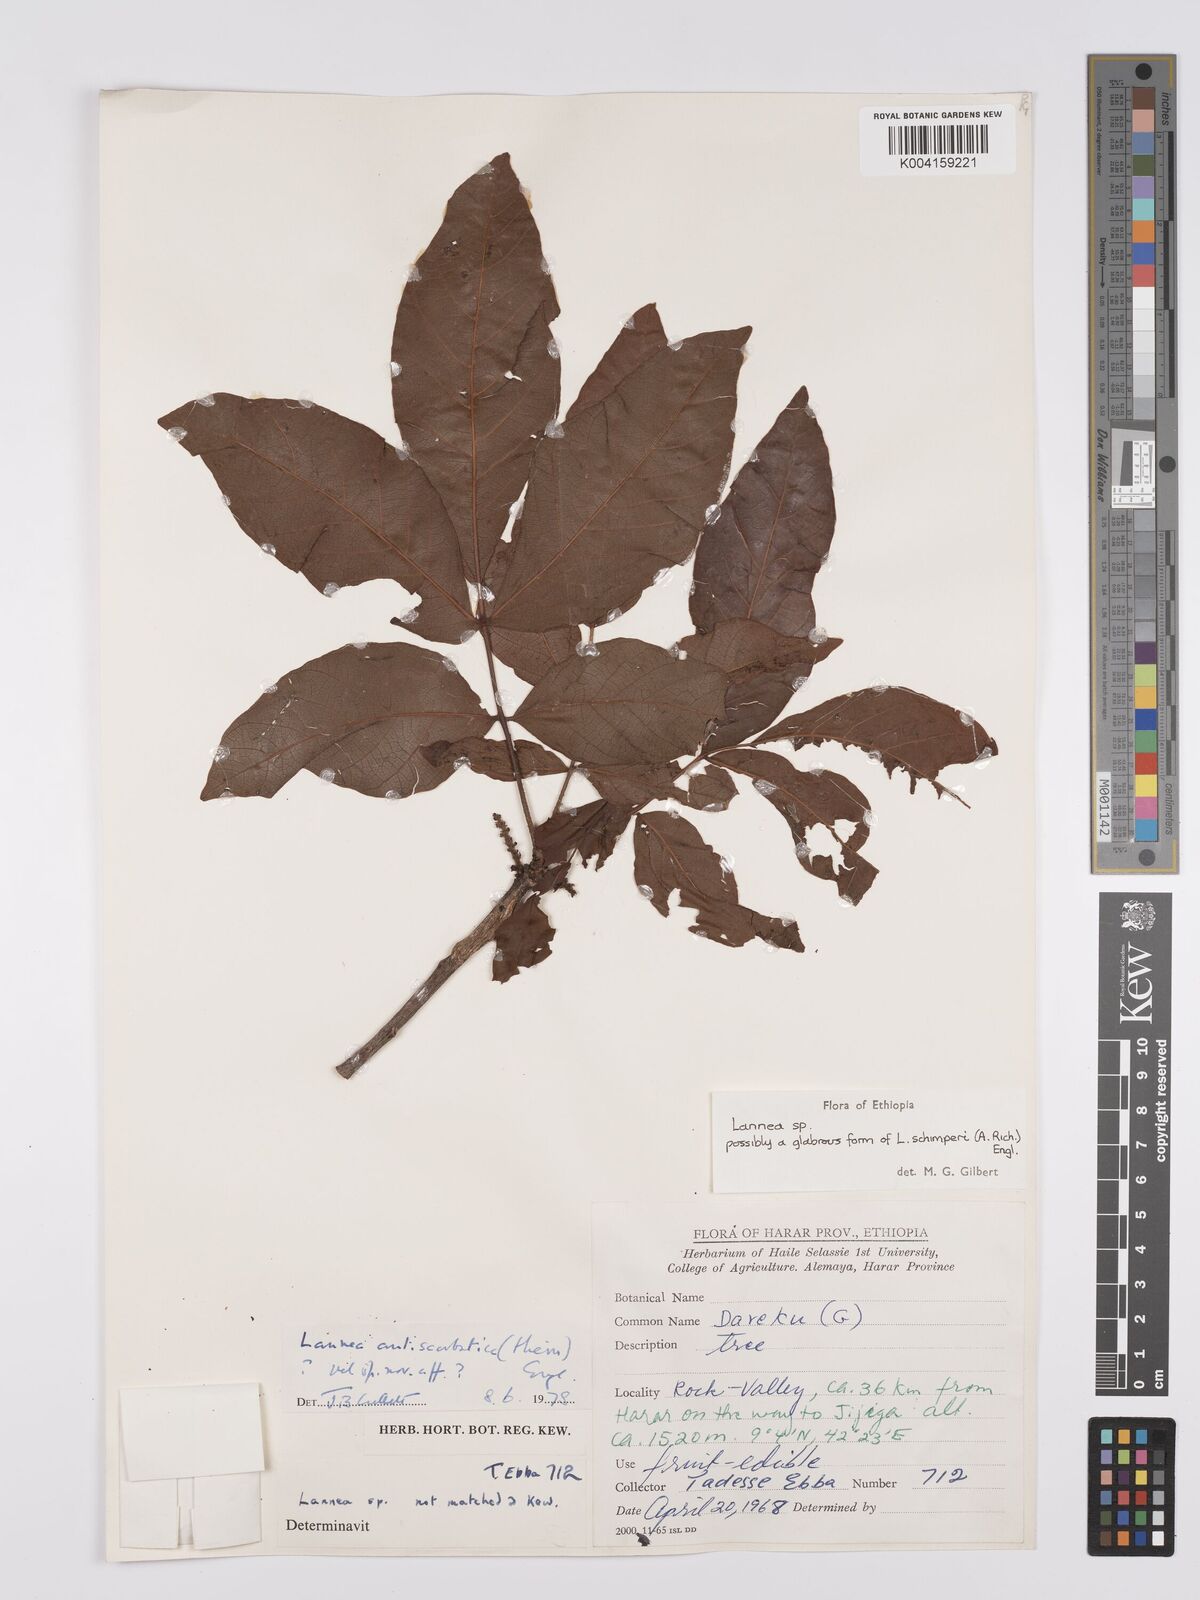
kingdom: Plantae
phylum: Tracheophyta
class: Magnoliopsida
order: Sapindales
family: Anacardiaceae
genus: Lannea
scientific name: Lannea schimperi
